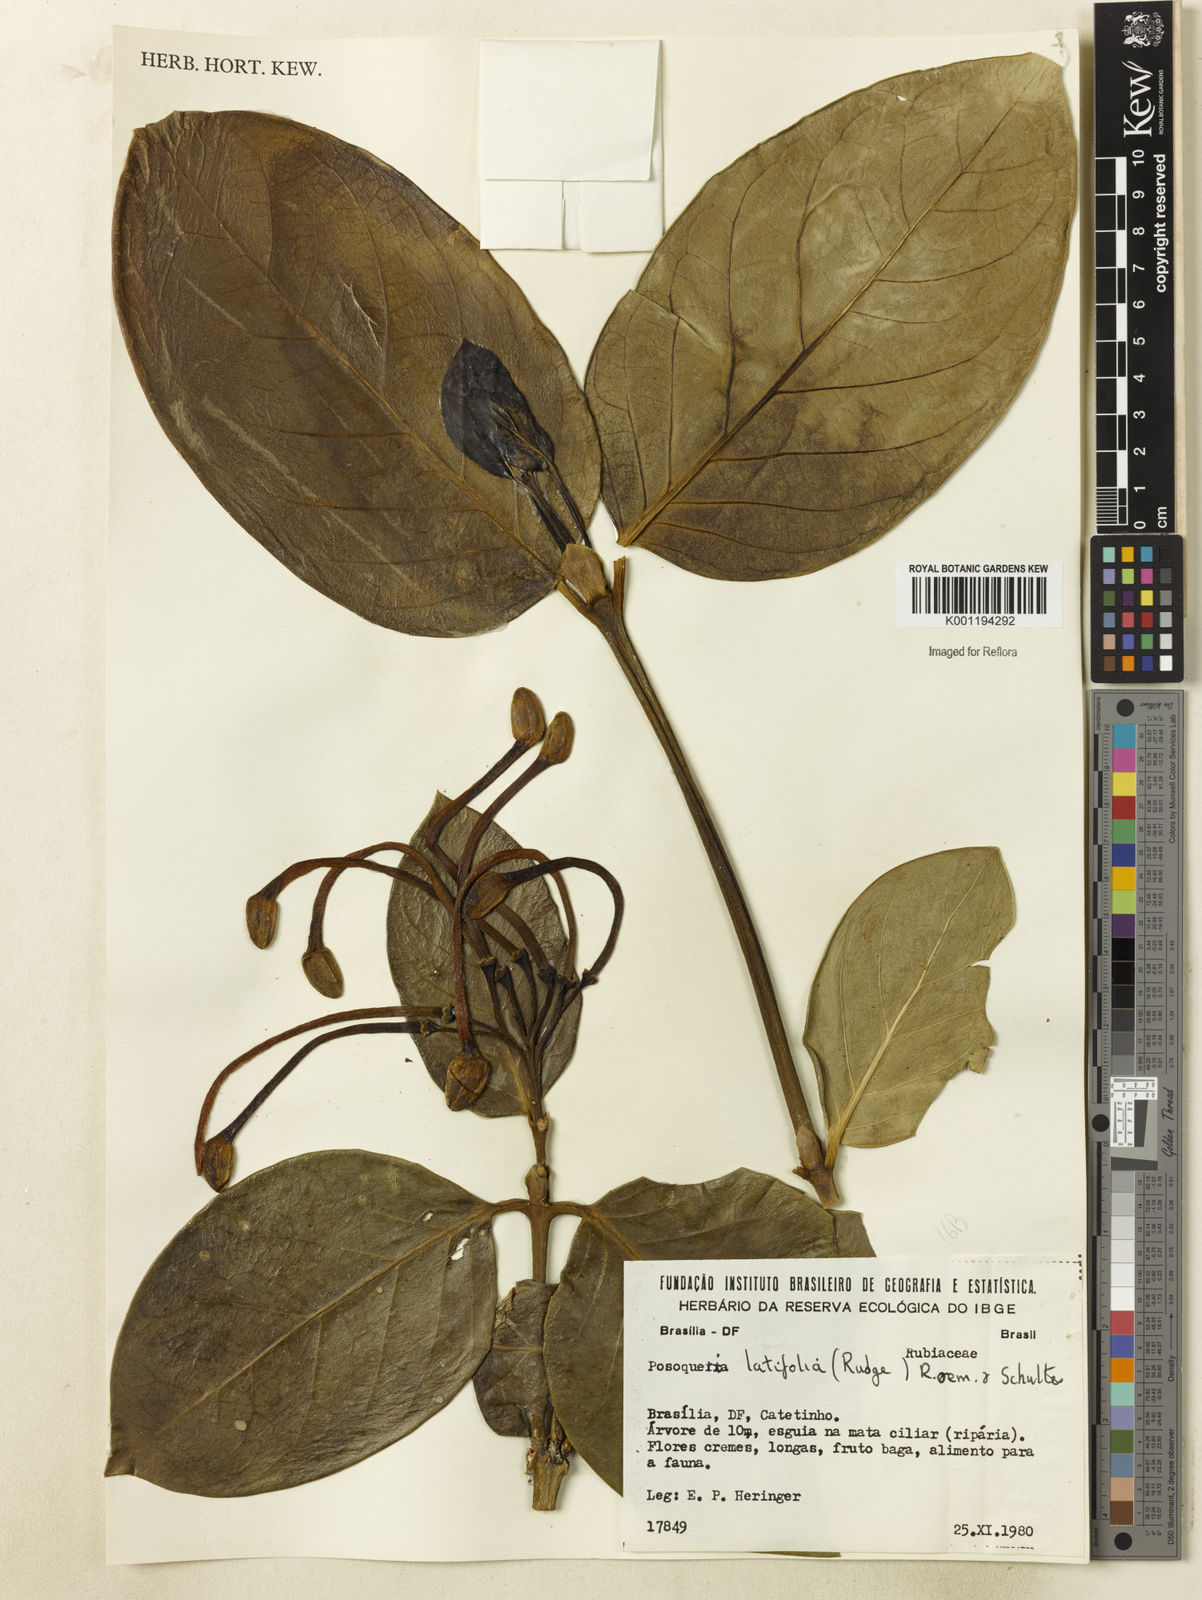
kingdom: Plantae
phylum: Tracheophyta
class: Magnoliopsida
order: Gentianales
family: Rubiaceae
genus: Posoqueria
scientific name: Posoqueria latifolia
